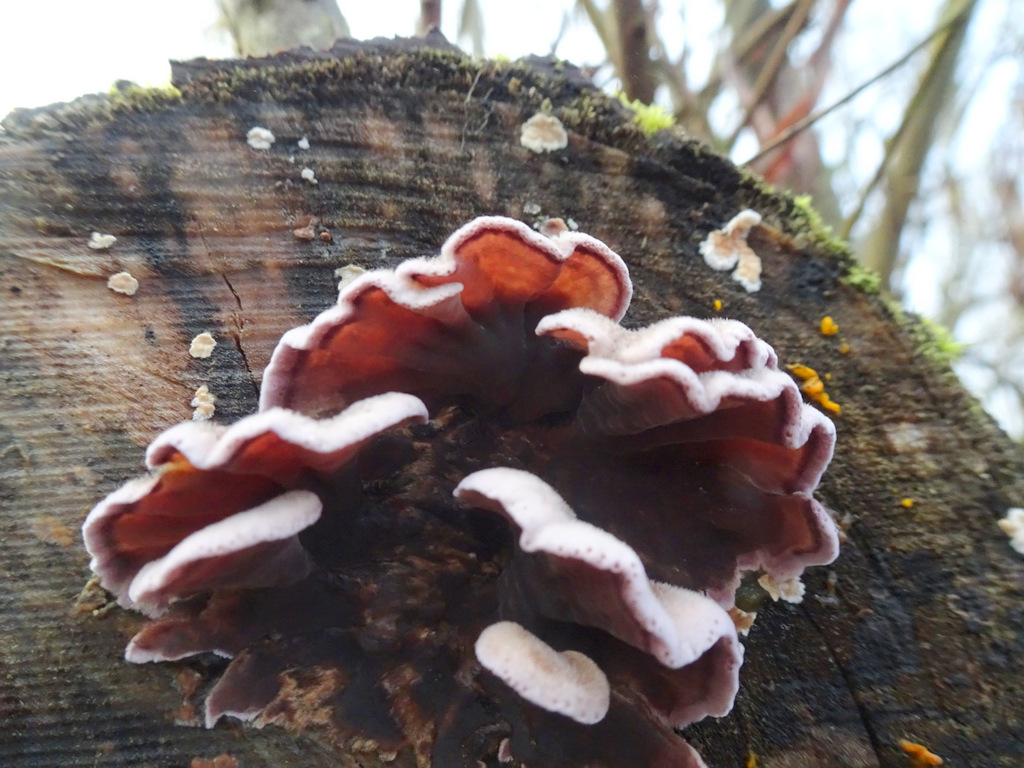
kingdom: Fungi
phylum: Basidiomycota
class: Agaricomycetes
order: Agaricales
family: Cyphellaceae
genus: Chondrostereum
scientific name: Chondrostereum purpureum
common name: purpurlædersvamp
